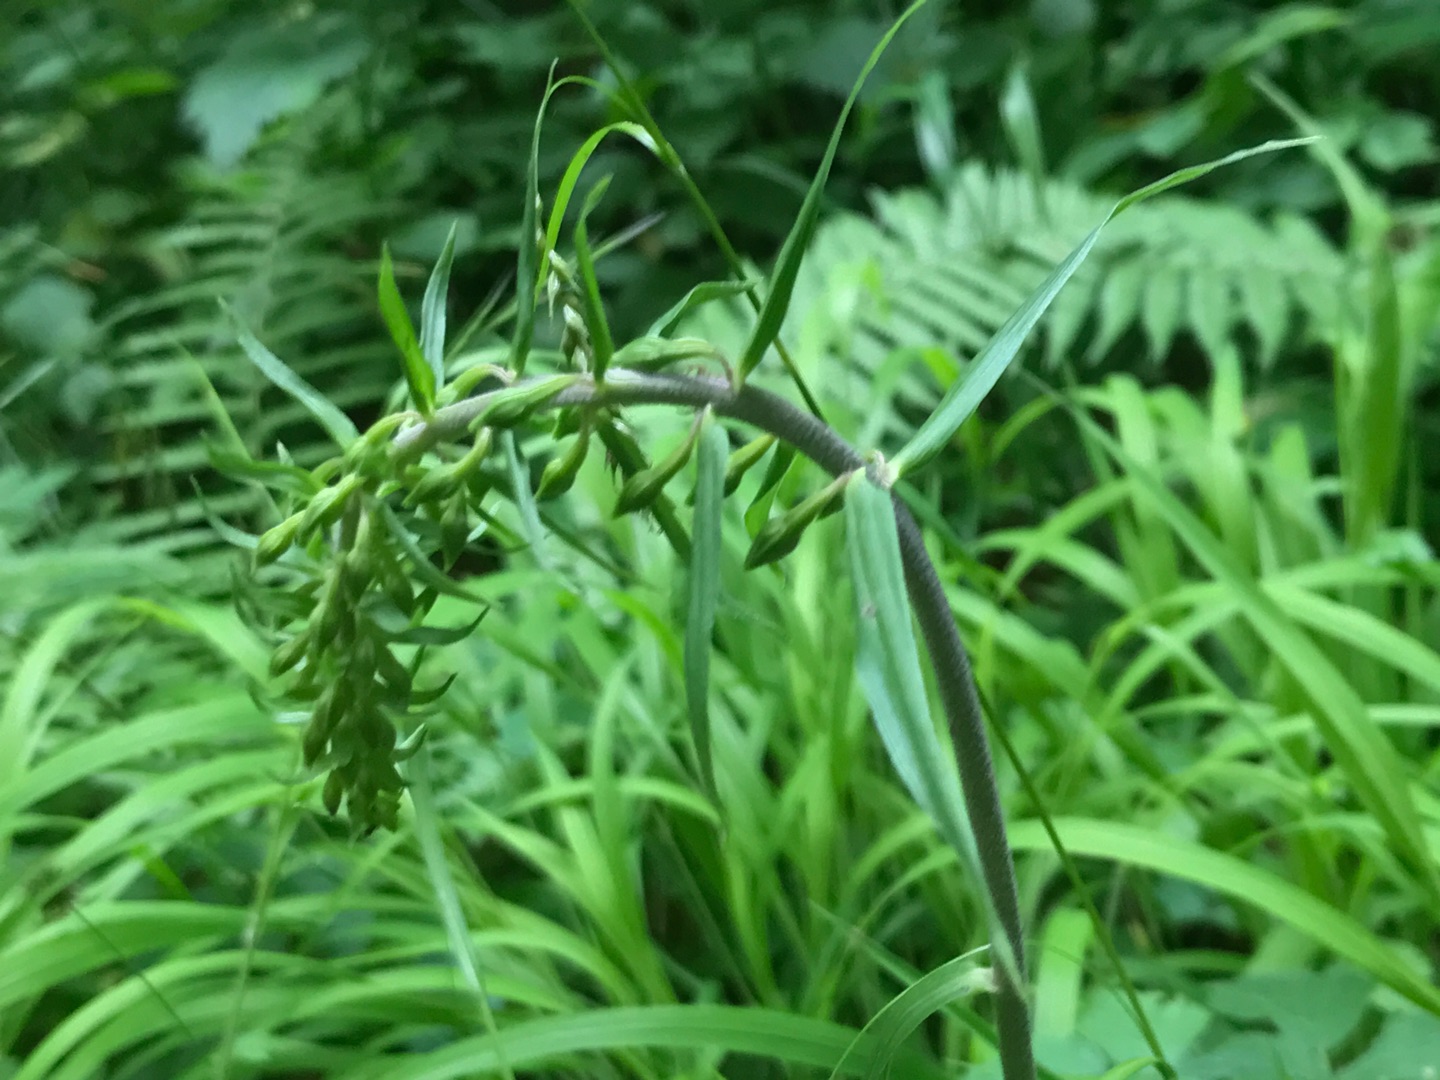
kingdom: Plantae
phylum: Tracheophyta
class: Liliopsida
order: Asparagales
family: Orchidaceae
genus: Epipactis
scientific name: Epipactis helleborine
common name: Skov-hullæbe
